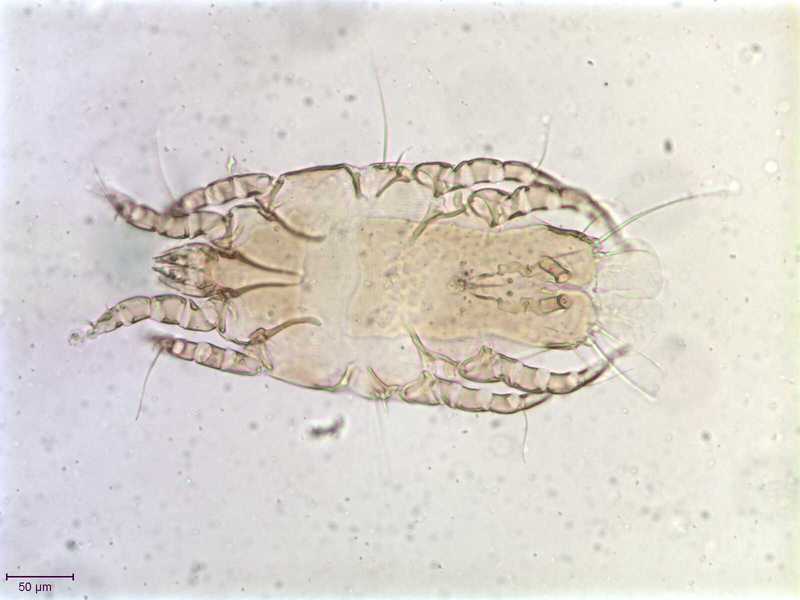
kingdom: Animalia
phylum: Arthropoda
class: Arachnida
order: Sarcoptiformes
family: Proctophyllodidae
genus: Proctophyllodes
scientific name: Proctophyllodes picae
